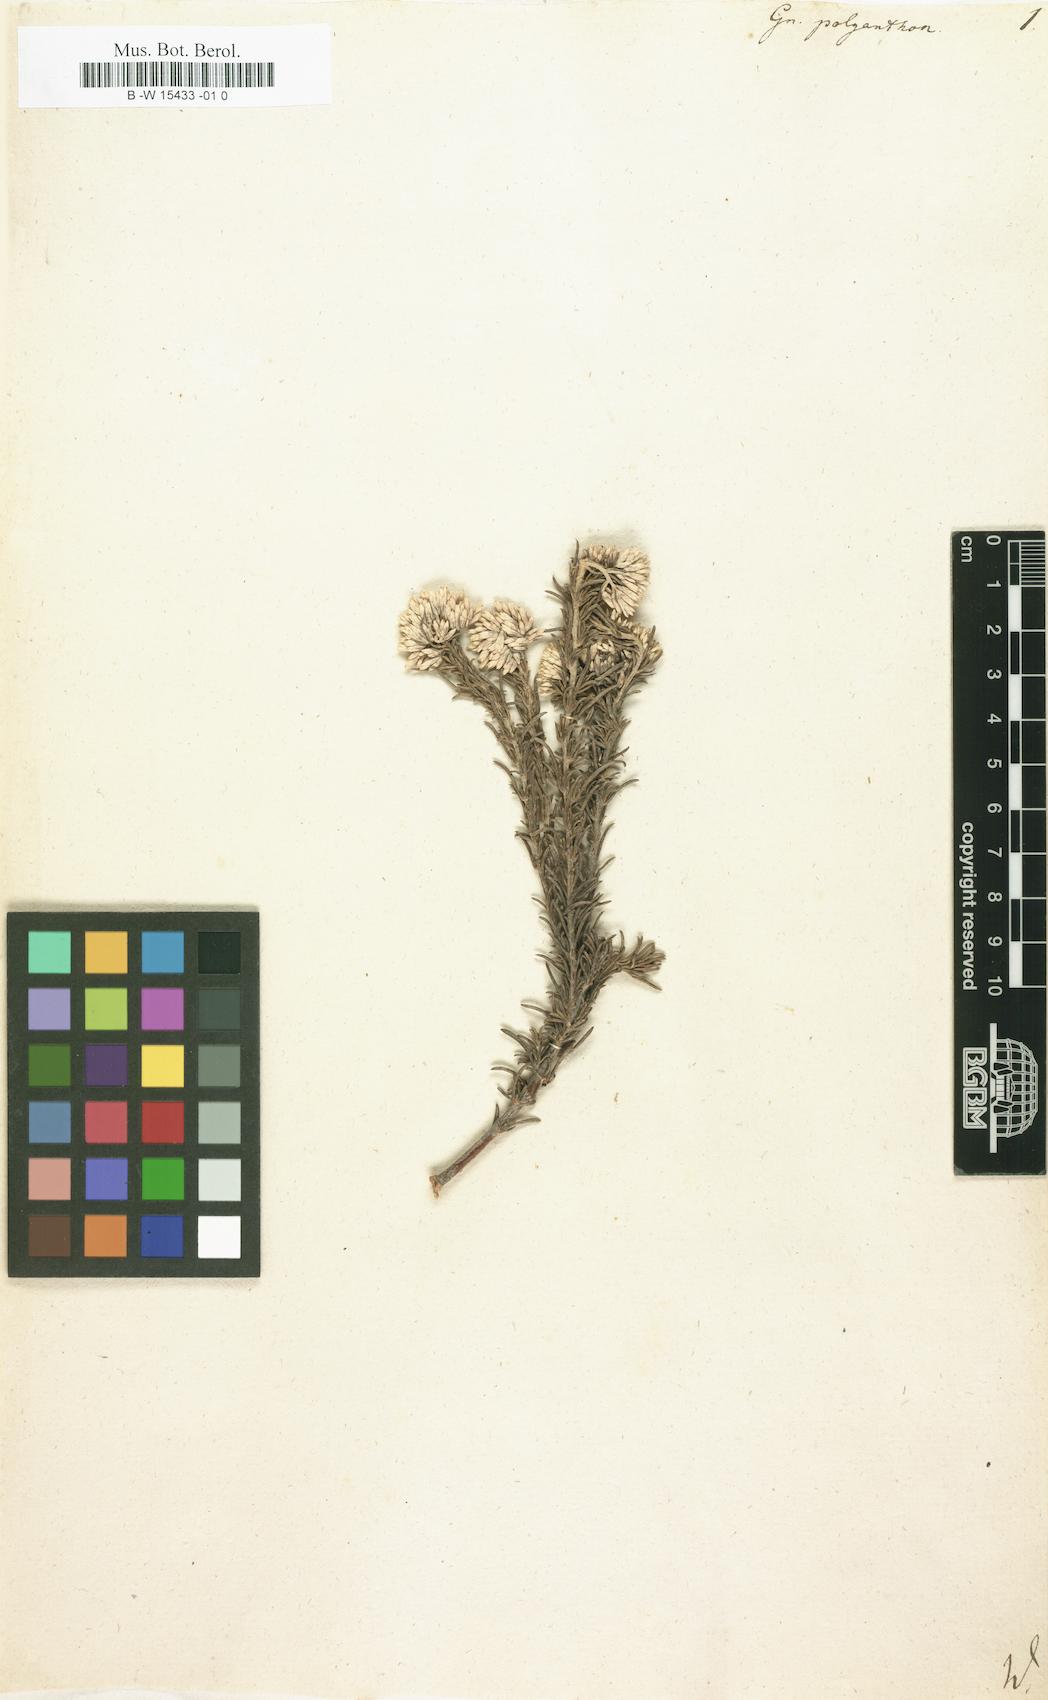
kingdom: Plantae
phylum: Tracheophyta
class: Magnoliopsida
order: Asterales
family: Asteraceae
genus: Metalasia
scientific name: Metalasia muricata
